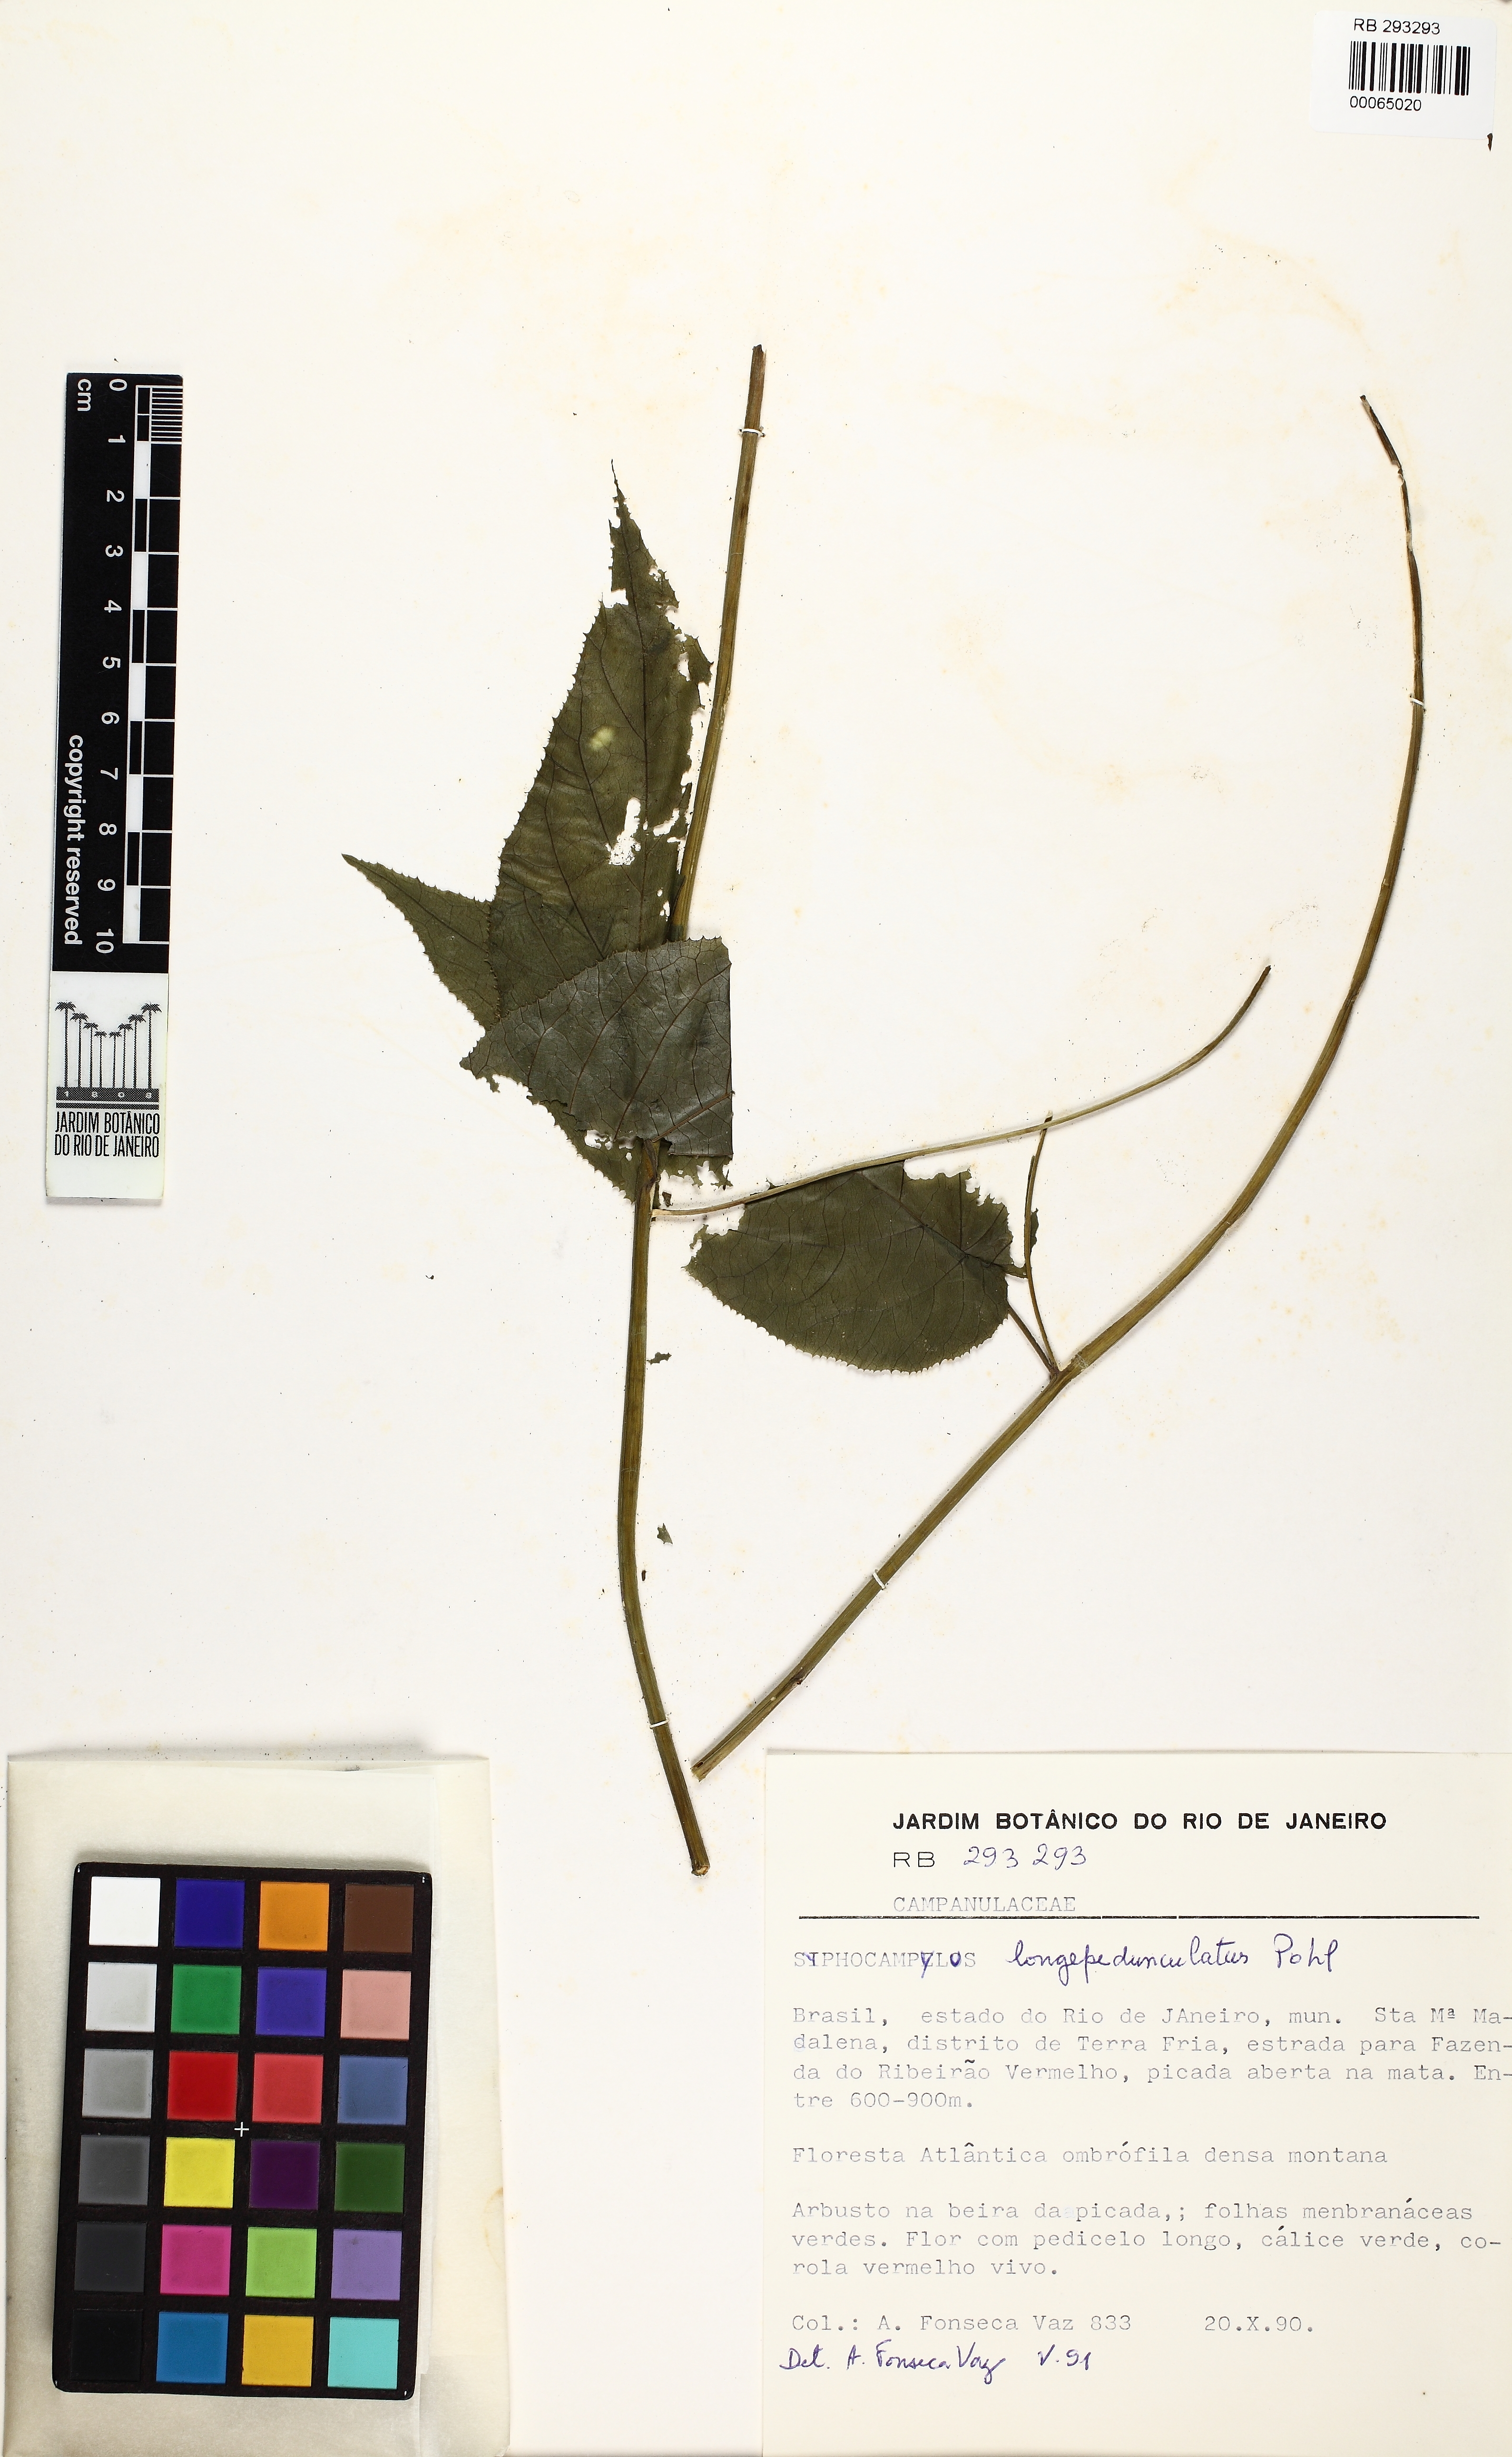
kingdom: Plantae
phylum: Tracheophyta
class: Magnoliopsida
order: Asterales
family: Campanulaceae
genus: Siphocampylus
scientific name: Siphocampylus longipedunculatus
